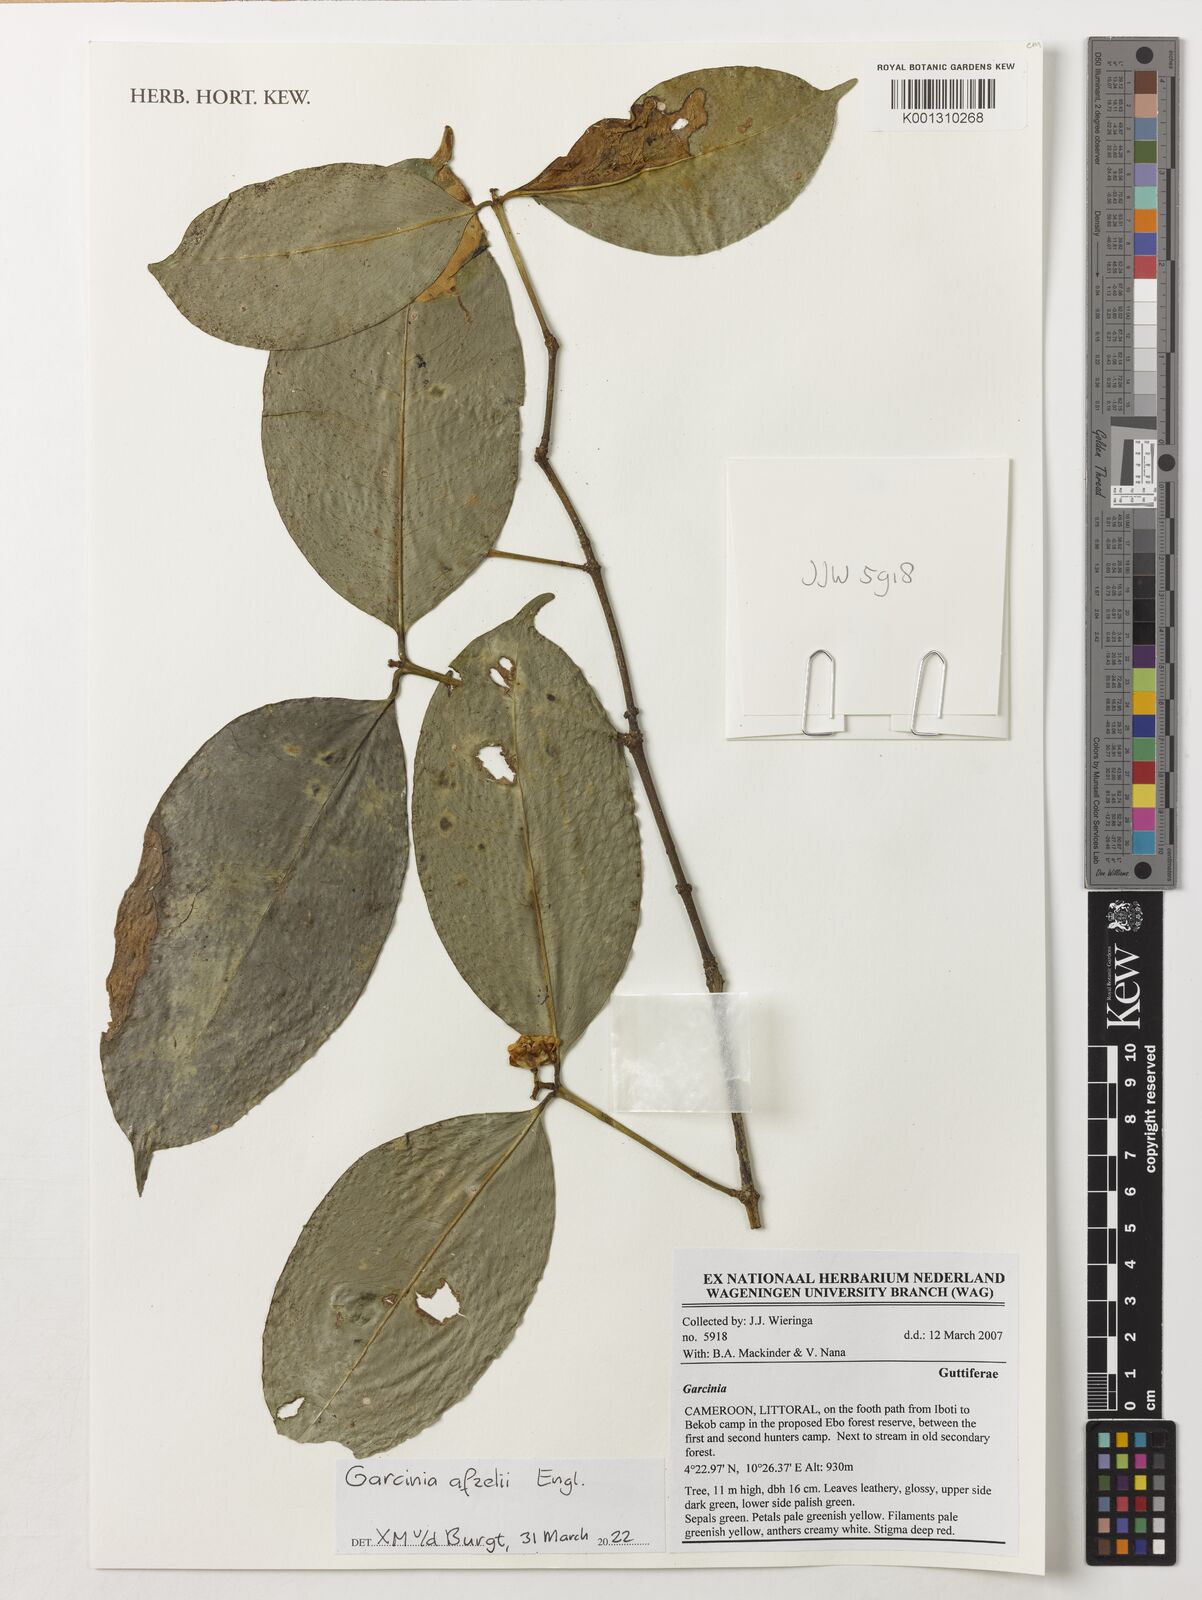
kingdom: Plantae
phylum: Tracheophyta
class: Magnoliopsida
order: Malpighiales
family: Clusiaceae
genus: Garcinia
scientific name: Garcinia afzelii
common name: Bitter-kola
